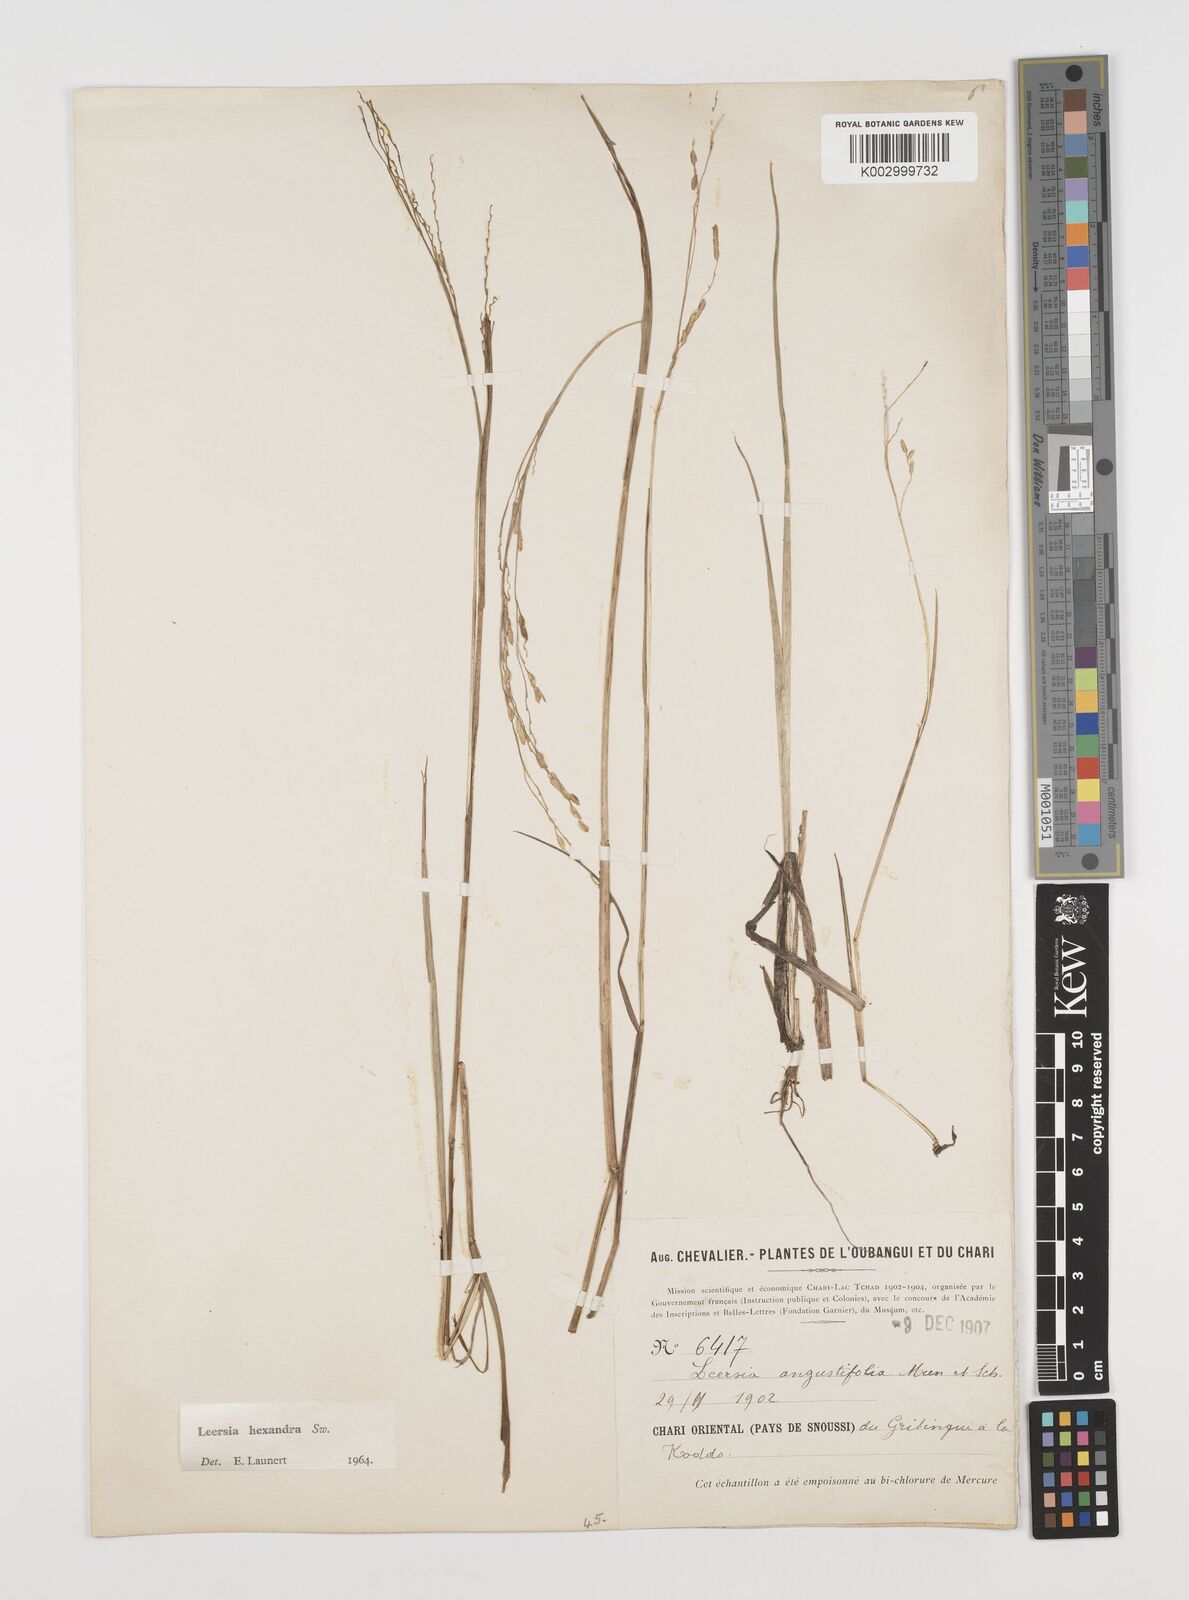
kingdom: Plantae
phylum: Tracheophyta
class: Liliopsida
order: Poales
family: Poaceae
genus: Leersia
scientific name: Leersia hexandra
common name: Southern cut grass
